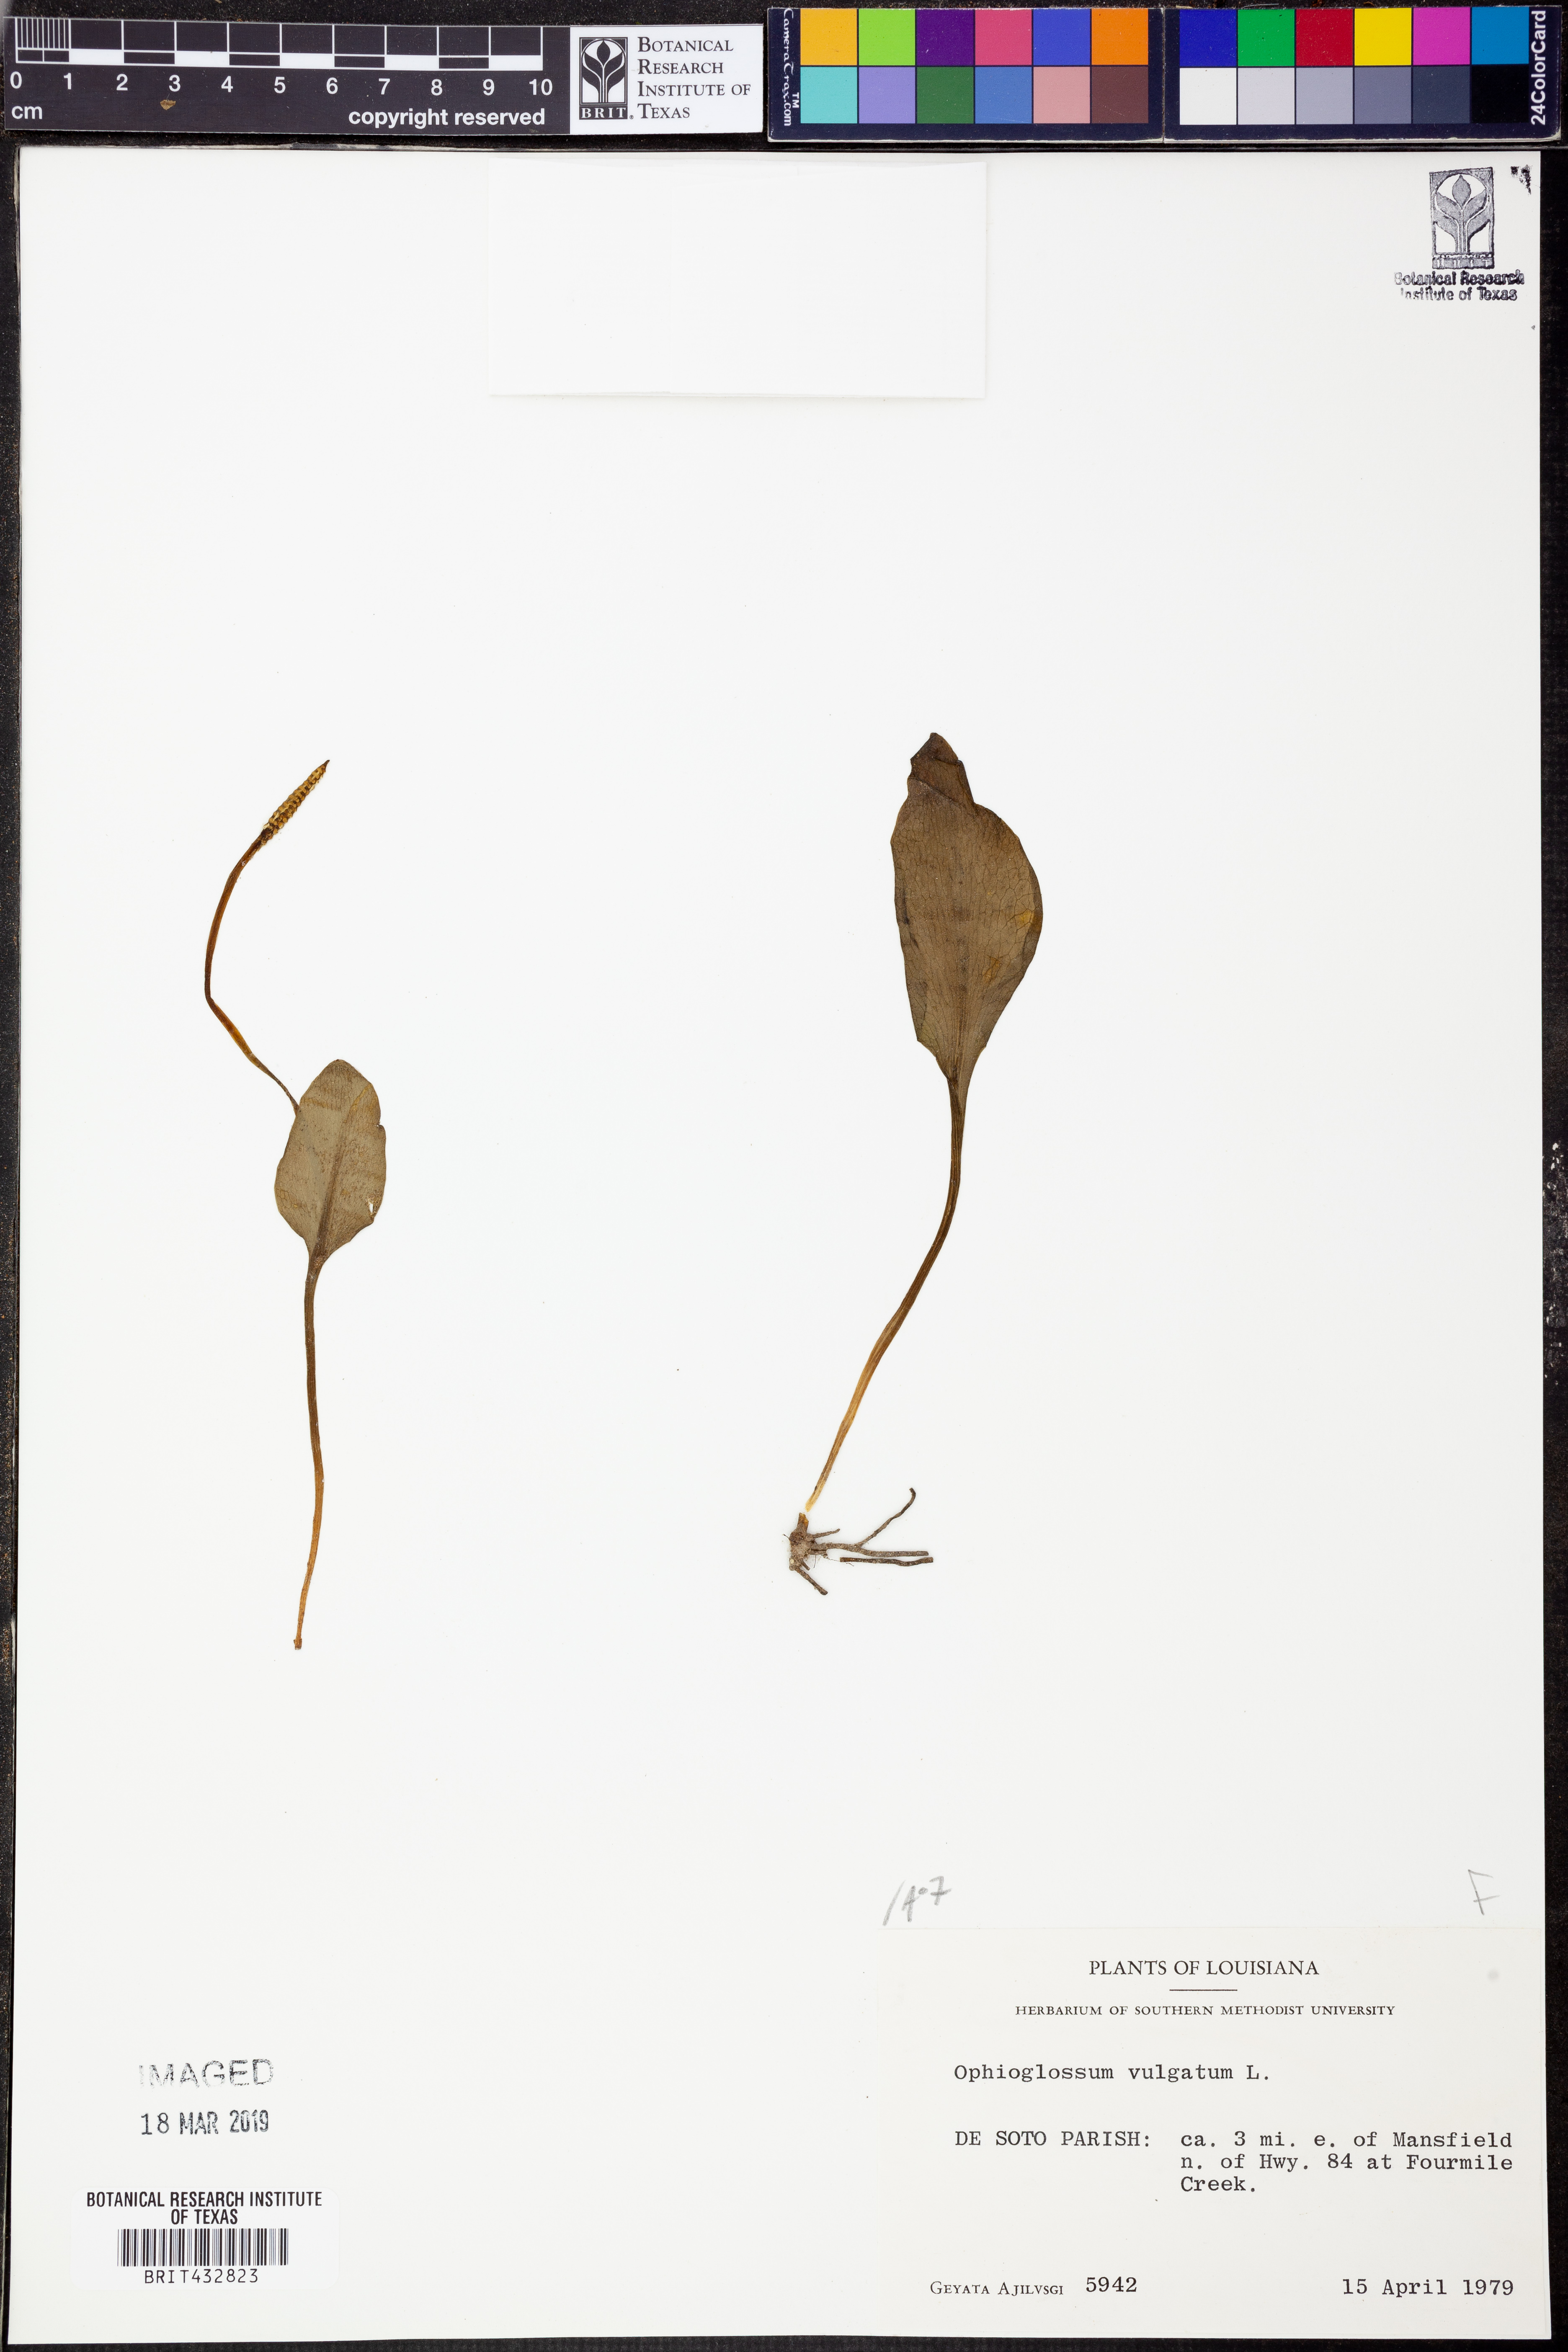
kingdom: Plantae
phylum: Tracheophyta
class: Polypodiopsida
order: Ophioglossales
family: Ophioglossaceae
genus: Ophioglossum
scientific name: Ophioglossum vulgatum
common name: Adder's-tongue
